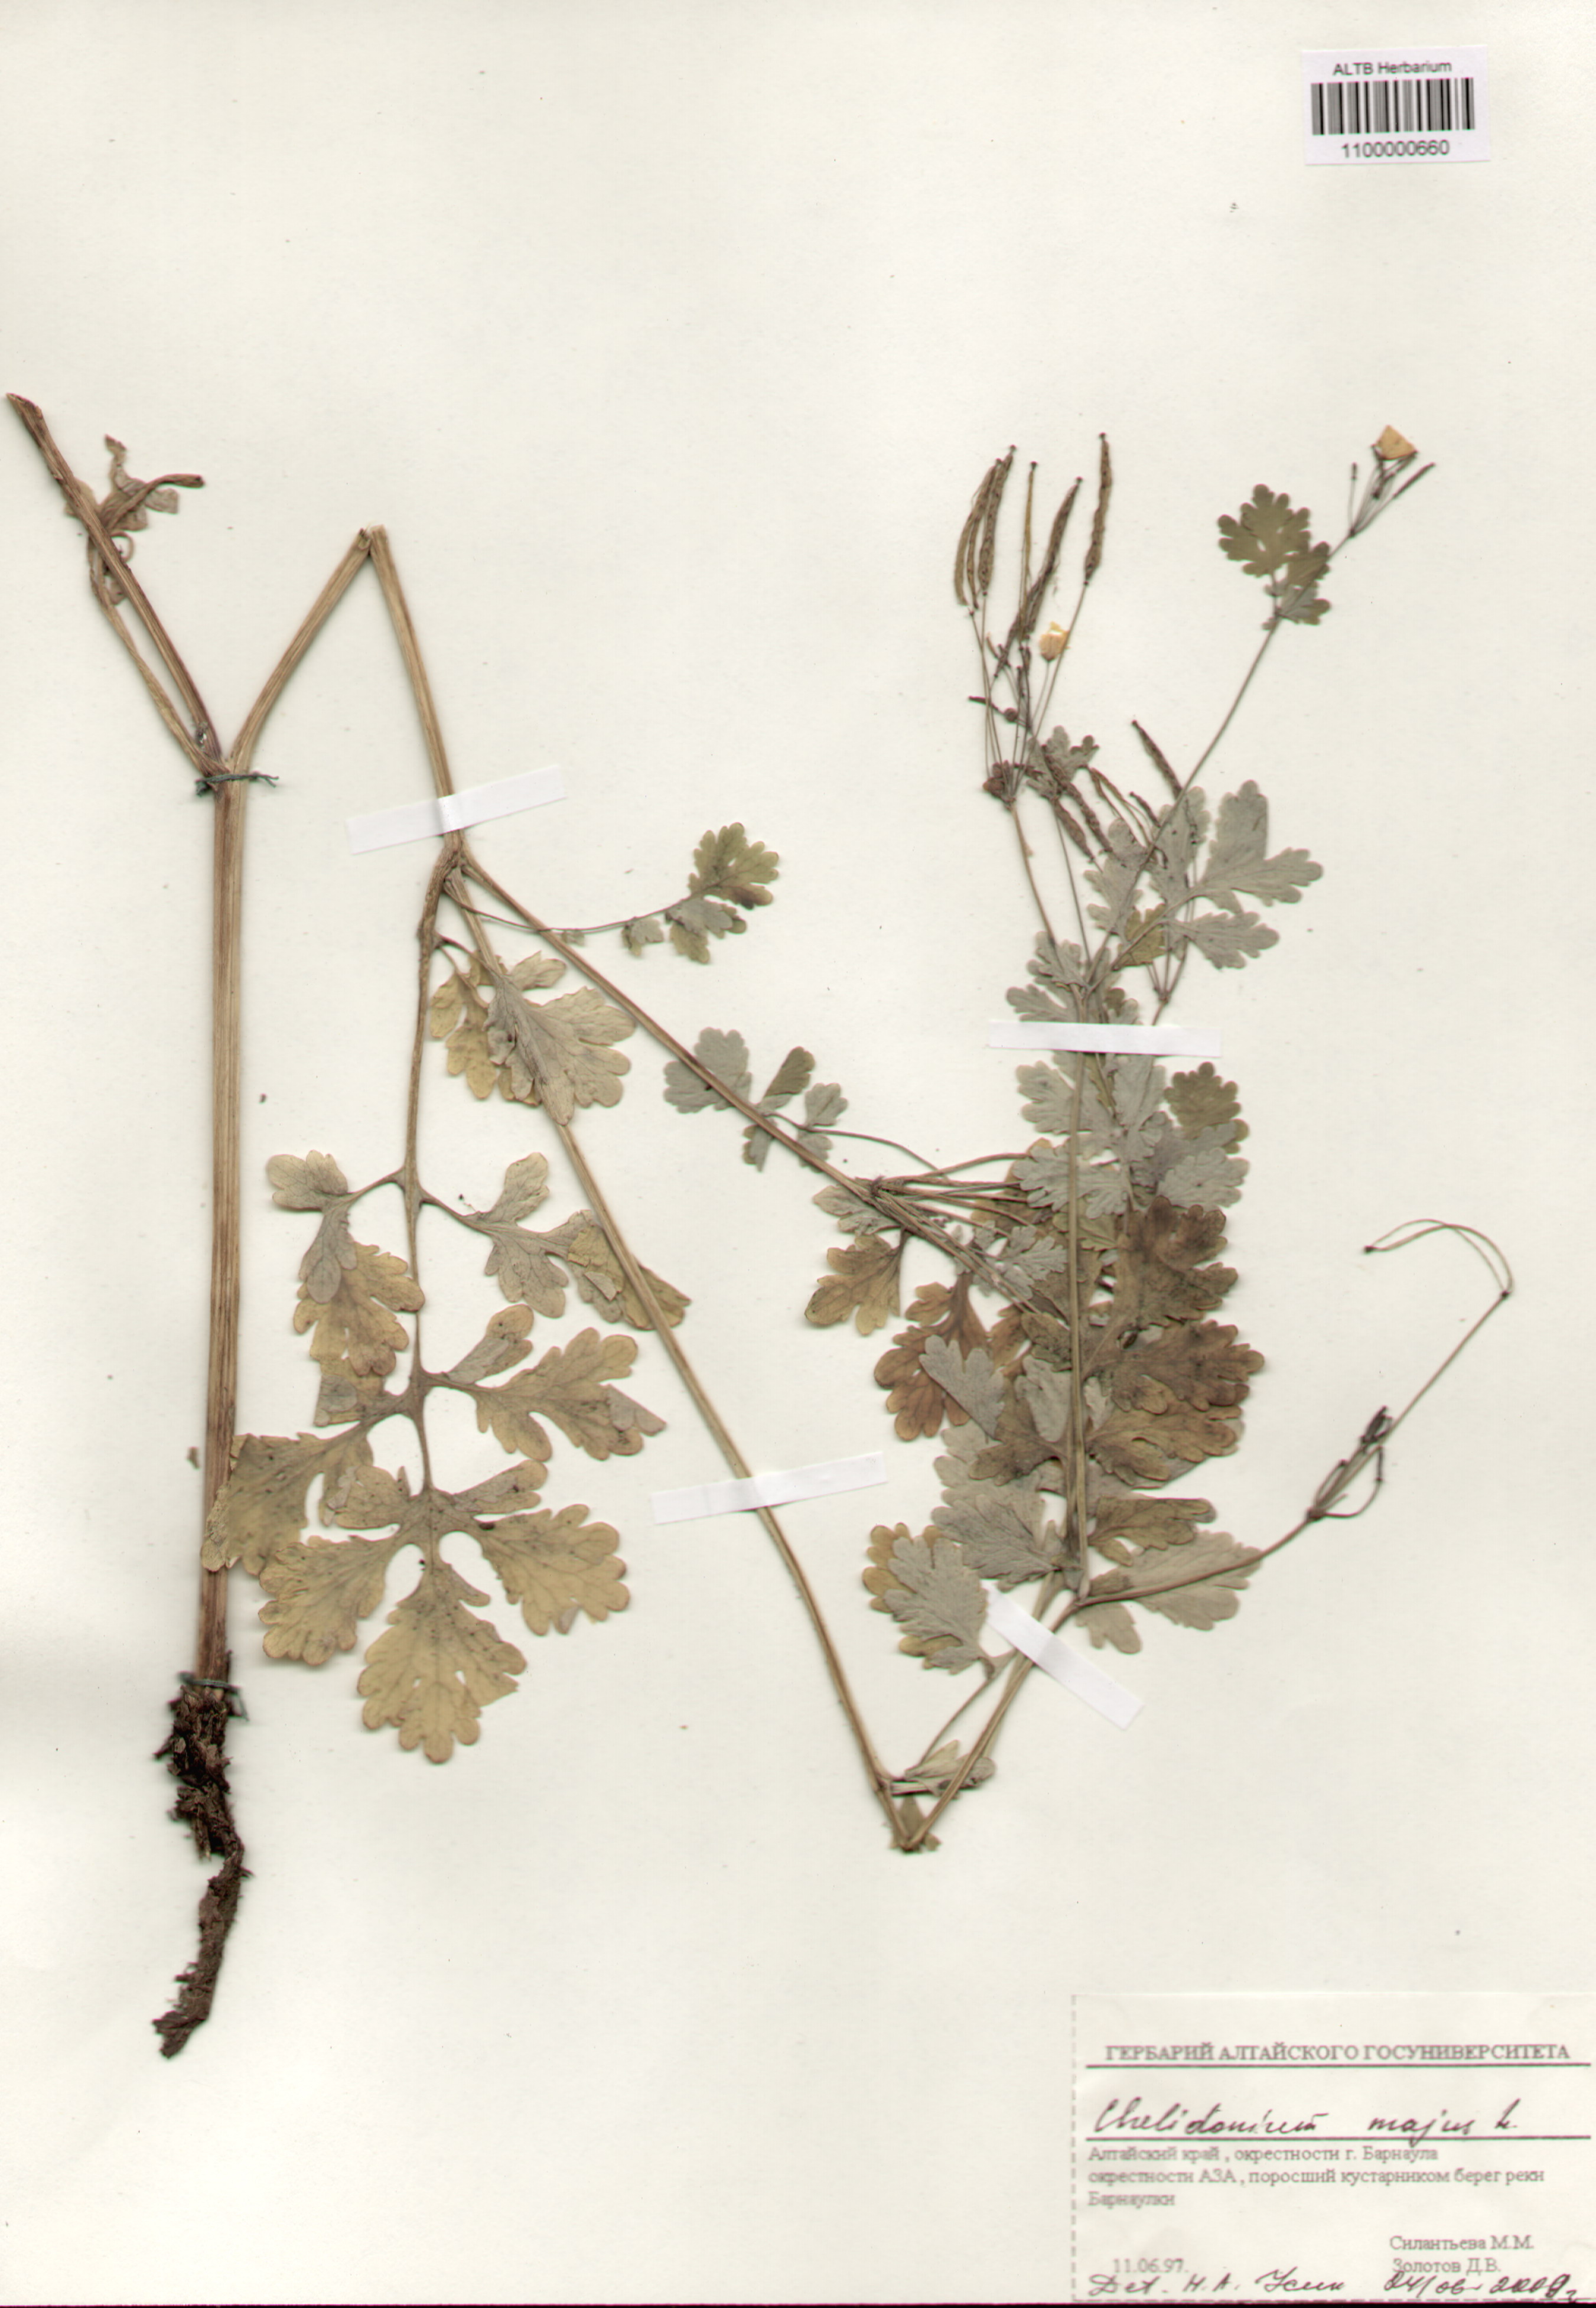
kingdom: Plantae
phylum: Tracheophyta
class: Magnoliopsida
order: Ranunculales
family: Papaveraceae
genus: Chelidonium
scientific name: Chelidonium majus
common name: Greater celandine
